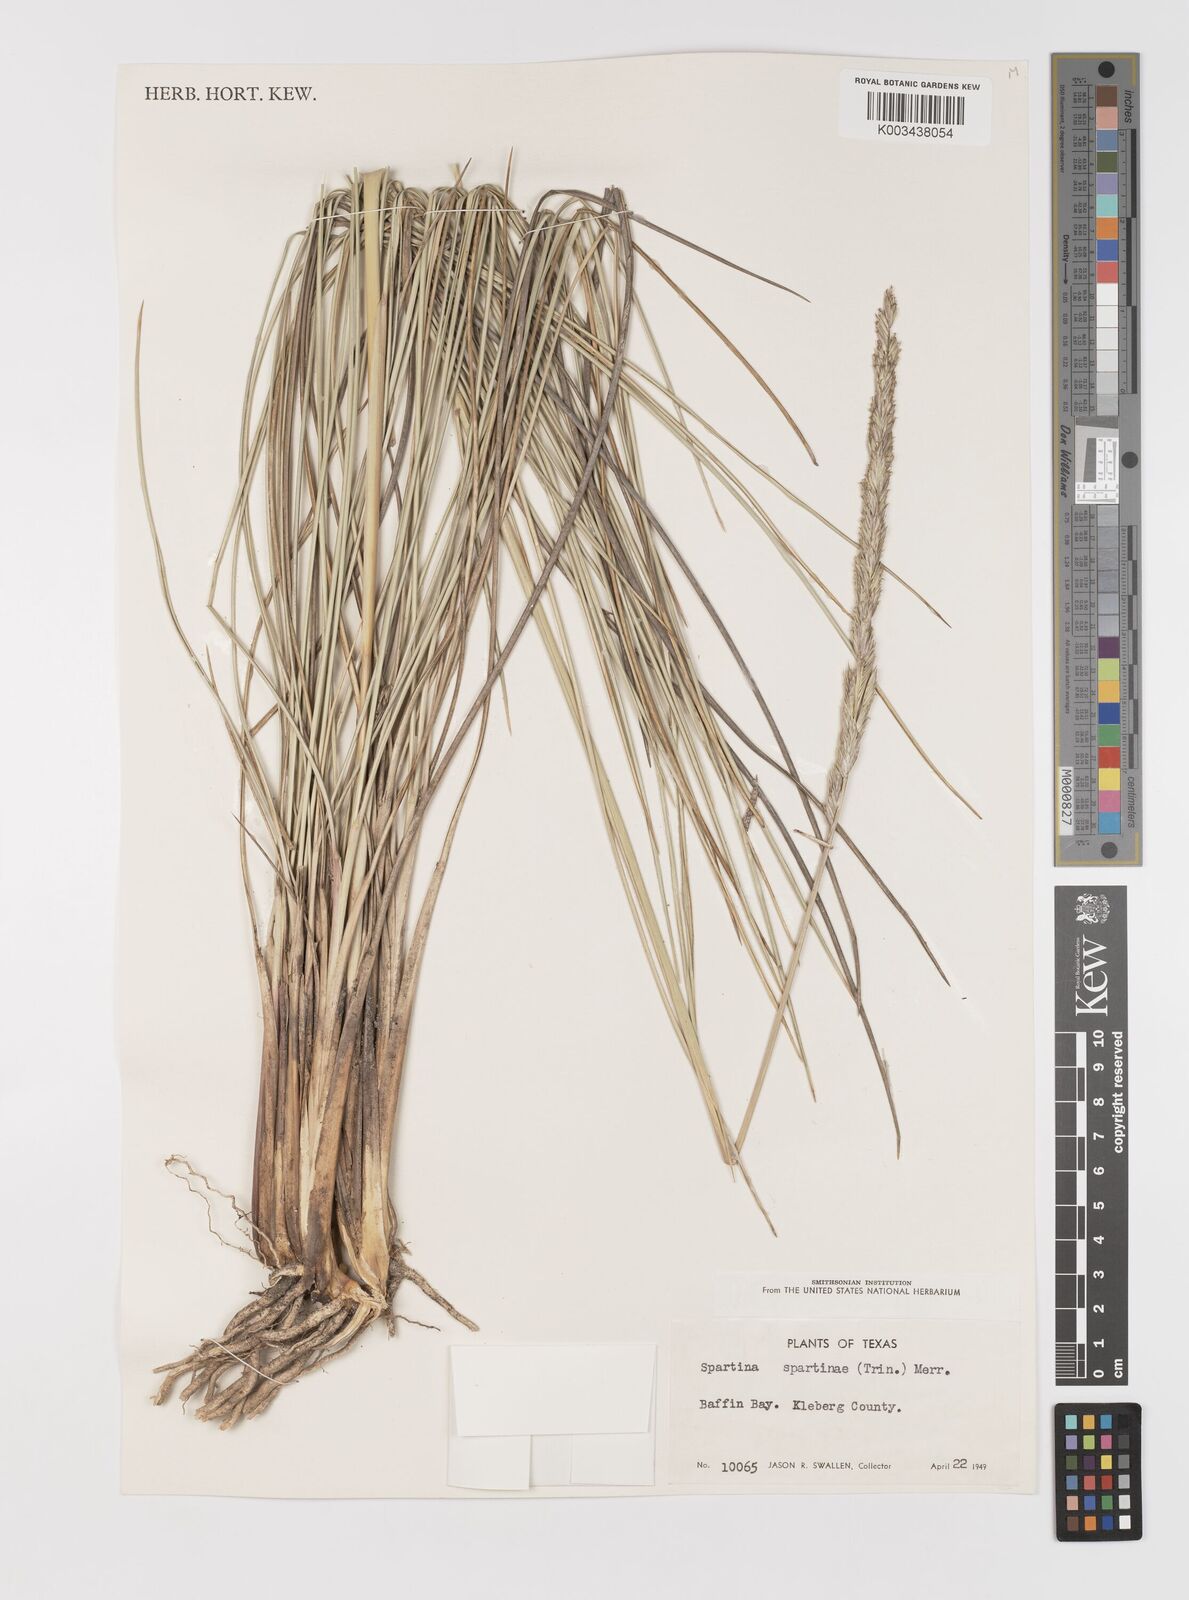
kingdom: Plantae
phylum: Tracheophyta
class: Liliopsida
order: Poales
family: Poaceae
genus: Sporobolus
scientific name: Sporobolus spartinae
